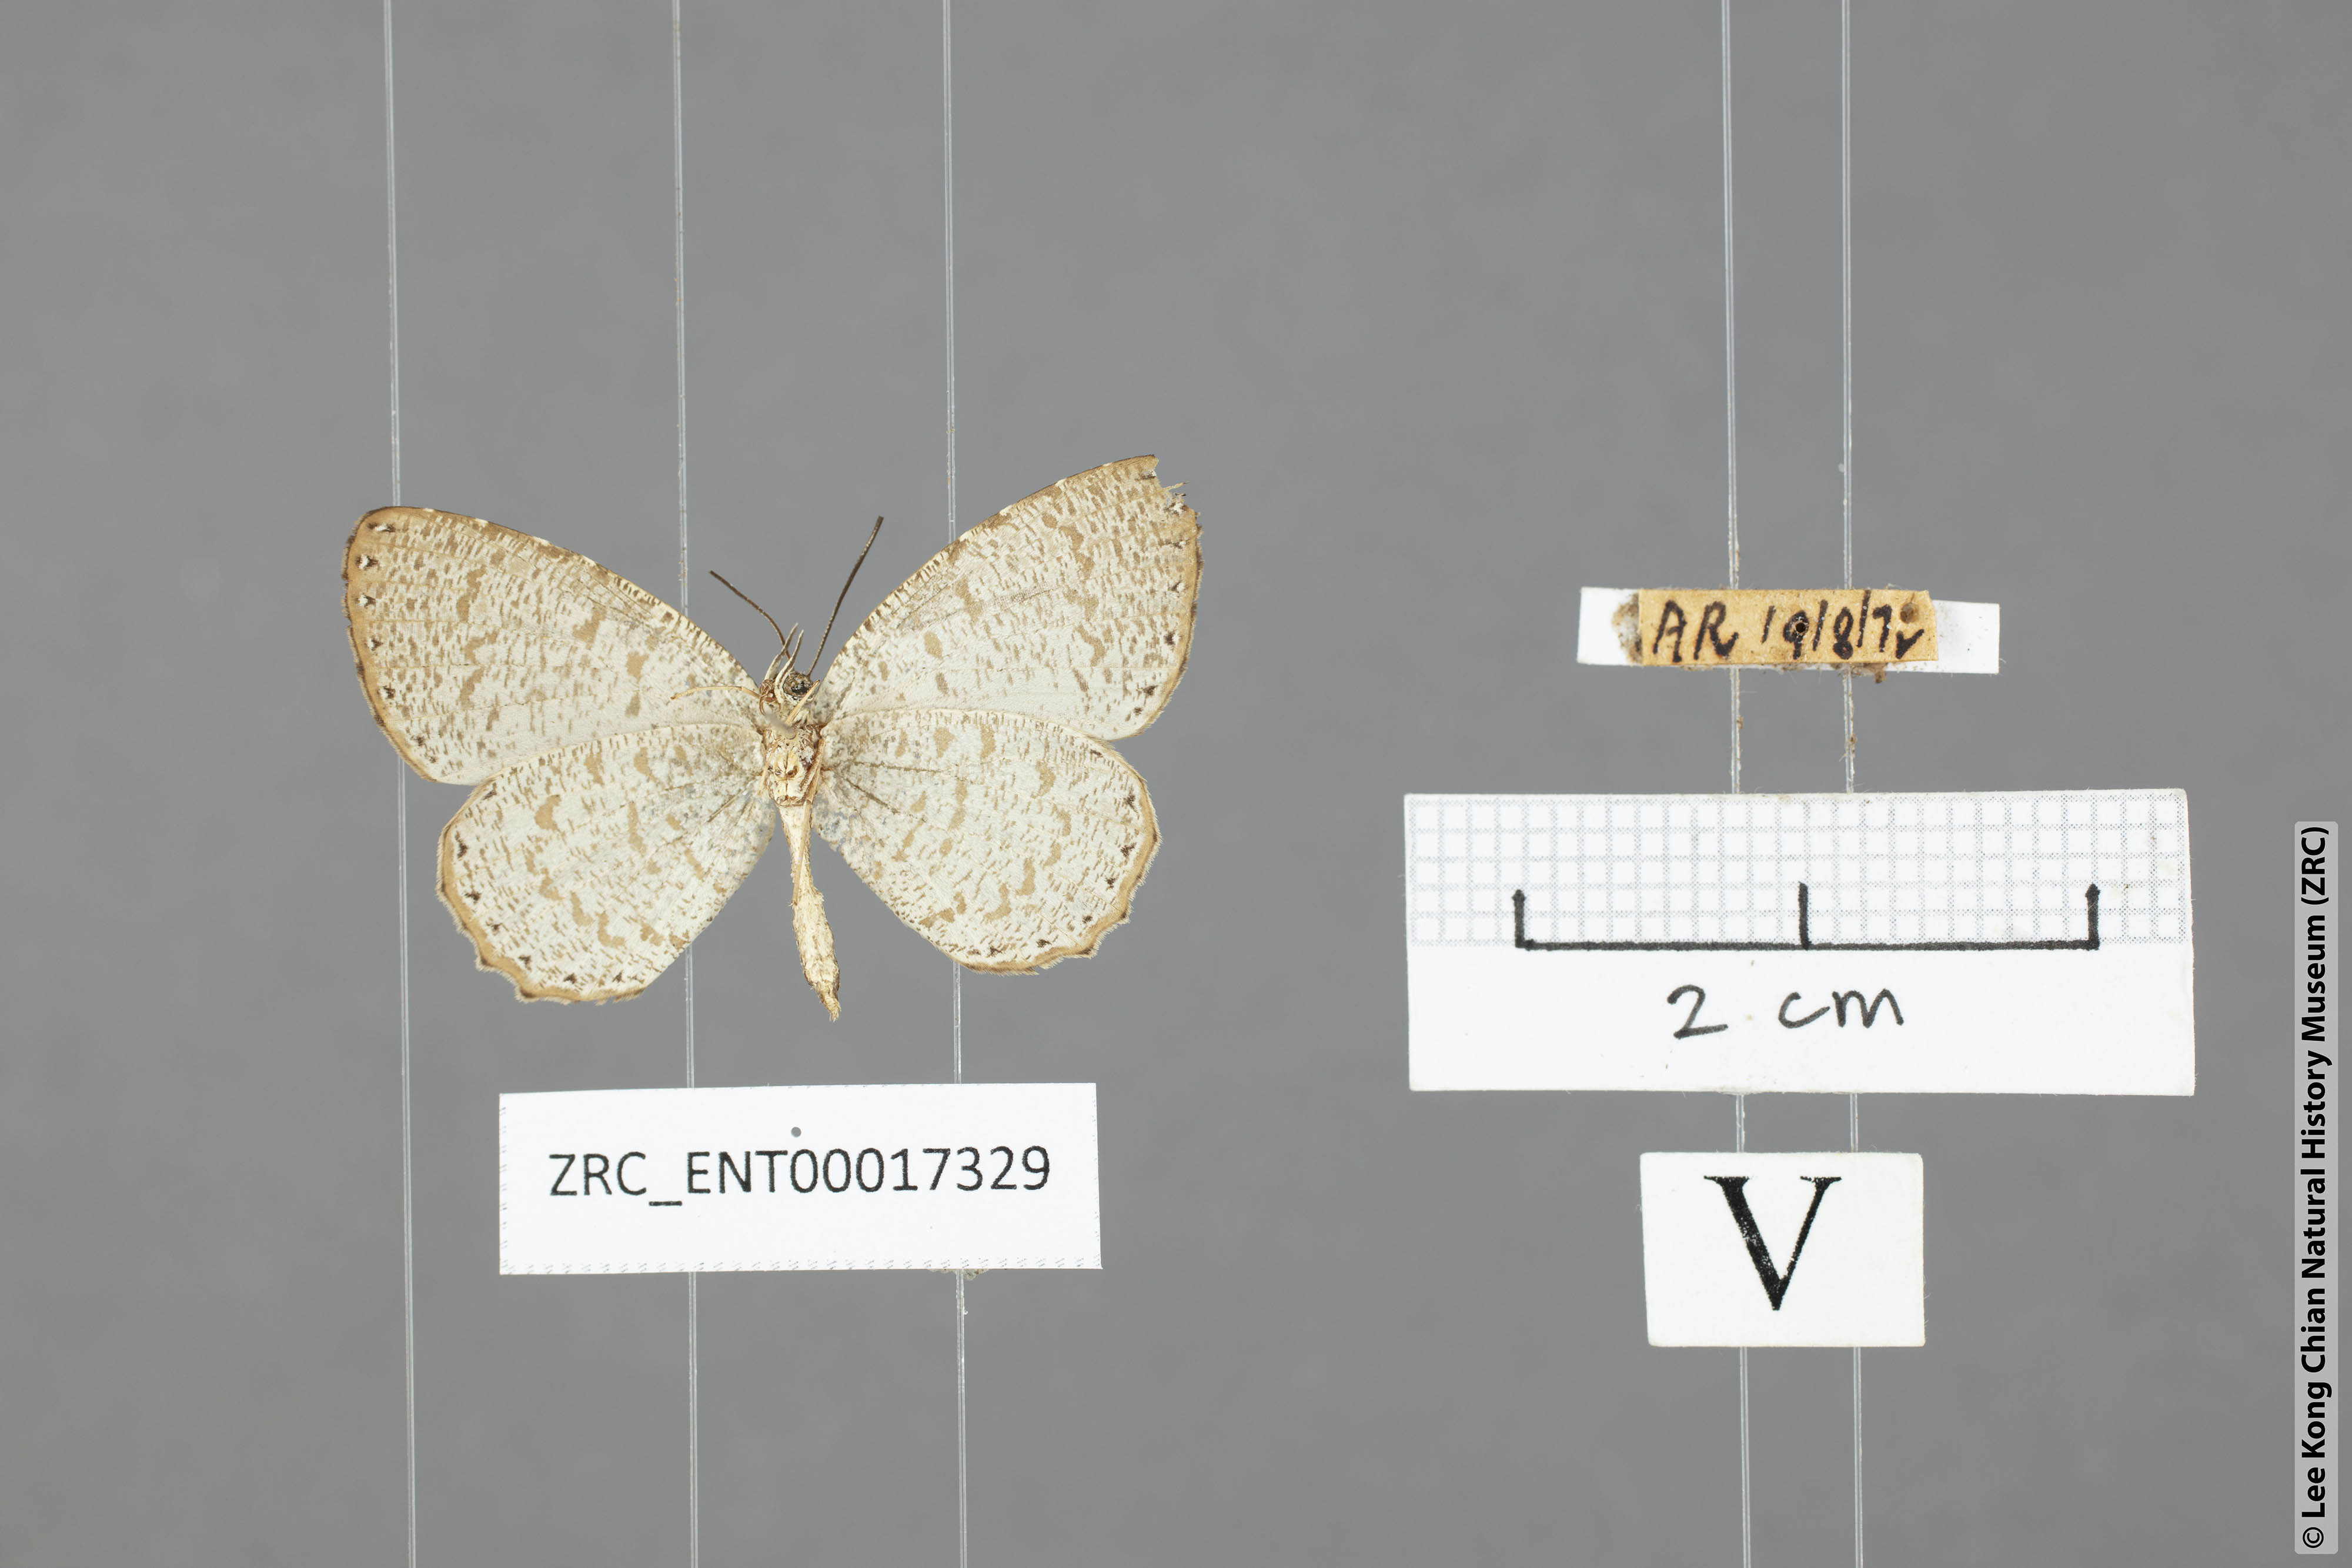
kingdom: Animalia
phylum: Arthropoda
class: Insecta
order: Lepidoptera
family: Lycaenidae
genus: Allotinus
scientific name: Allotinus sarastes
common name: Peninsular darkie
